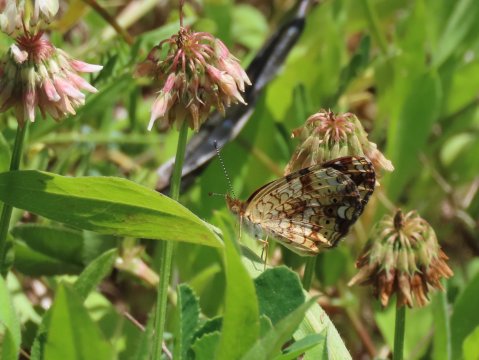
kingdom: Animalia
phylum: Arthropoda
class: Insecta
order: Lepidoptera
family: Nymphalidae
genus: Phyciodes
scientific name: Phyciodes tharos
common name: Pearl Crescent
